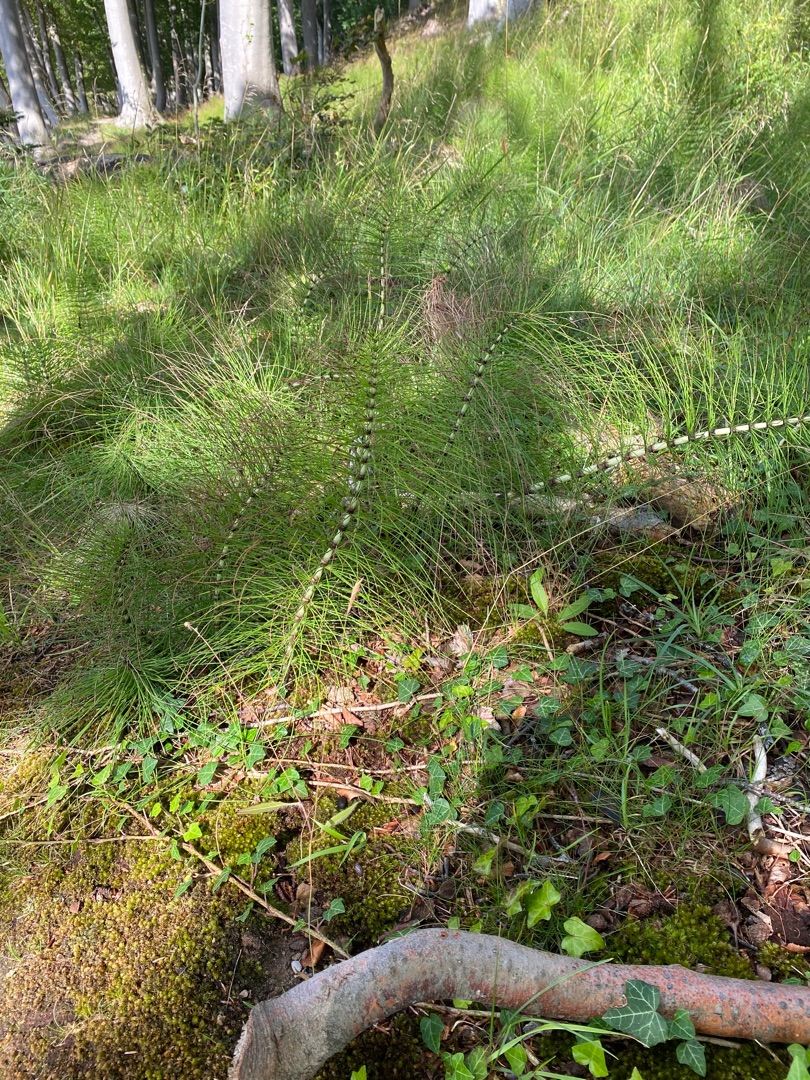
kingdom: Plantae
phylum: Tracheophyta
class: Polypodiopsida
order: Equisetales
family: Equisetaceae
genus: Equisetum
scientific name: Equisetum telmateia
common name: Elfenbens-padderok
